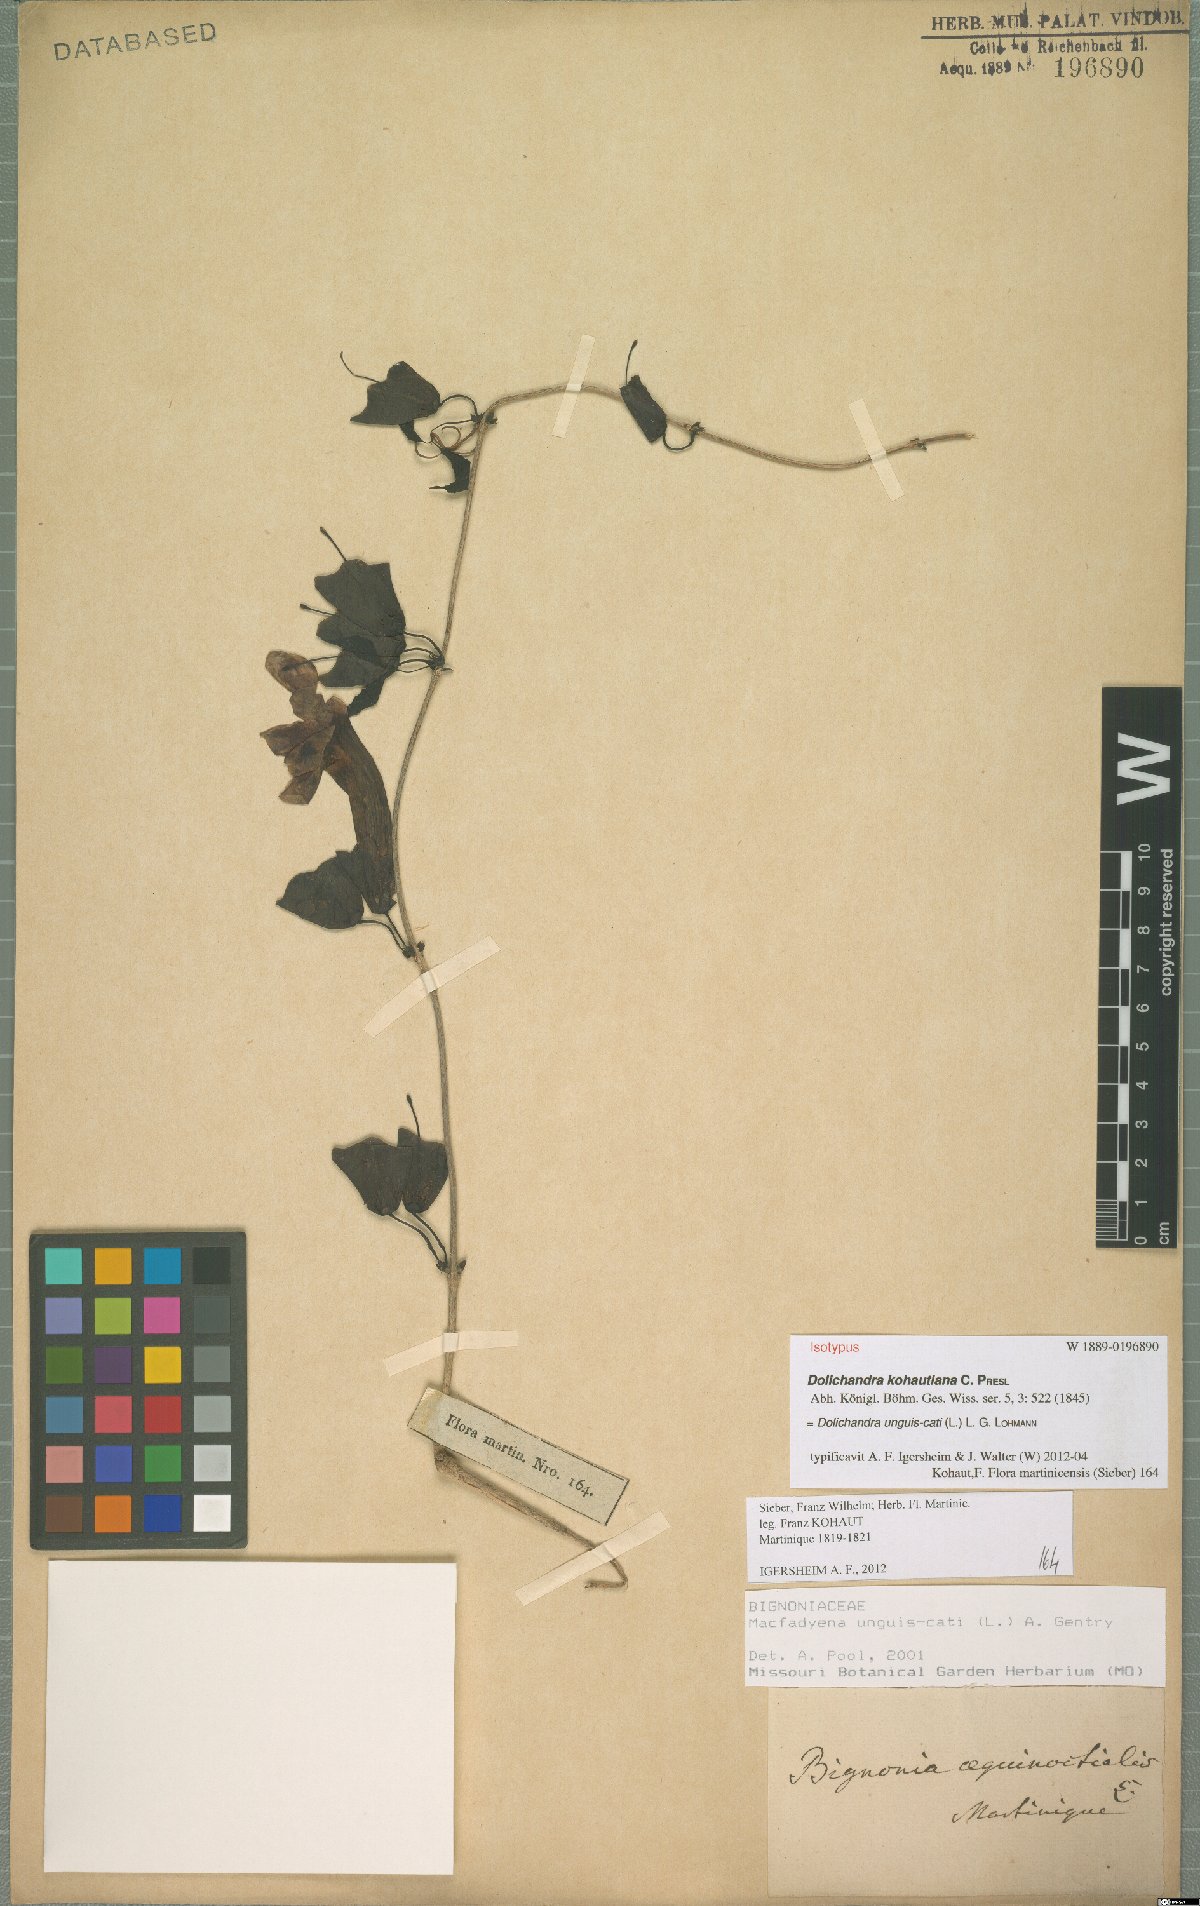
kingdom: Plantae
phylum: Tracheophyta
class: Magnoliopsida
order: Lamiales
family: Bignoniaceae
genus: Dolichandra
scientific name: Dolichandra unguis-cati
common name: Catclaw vine
